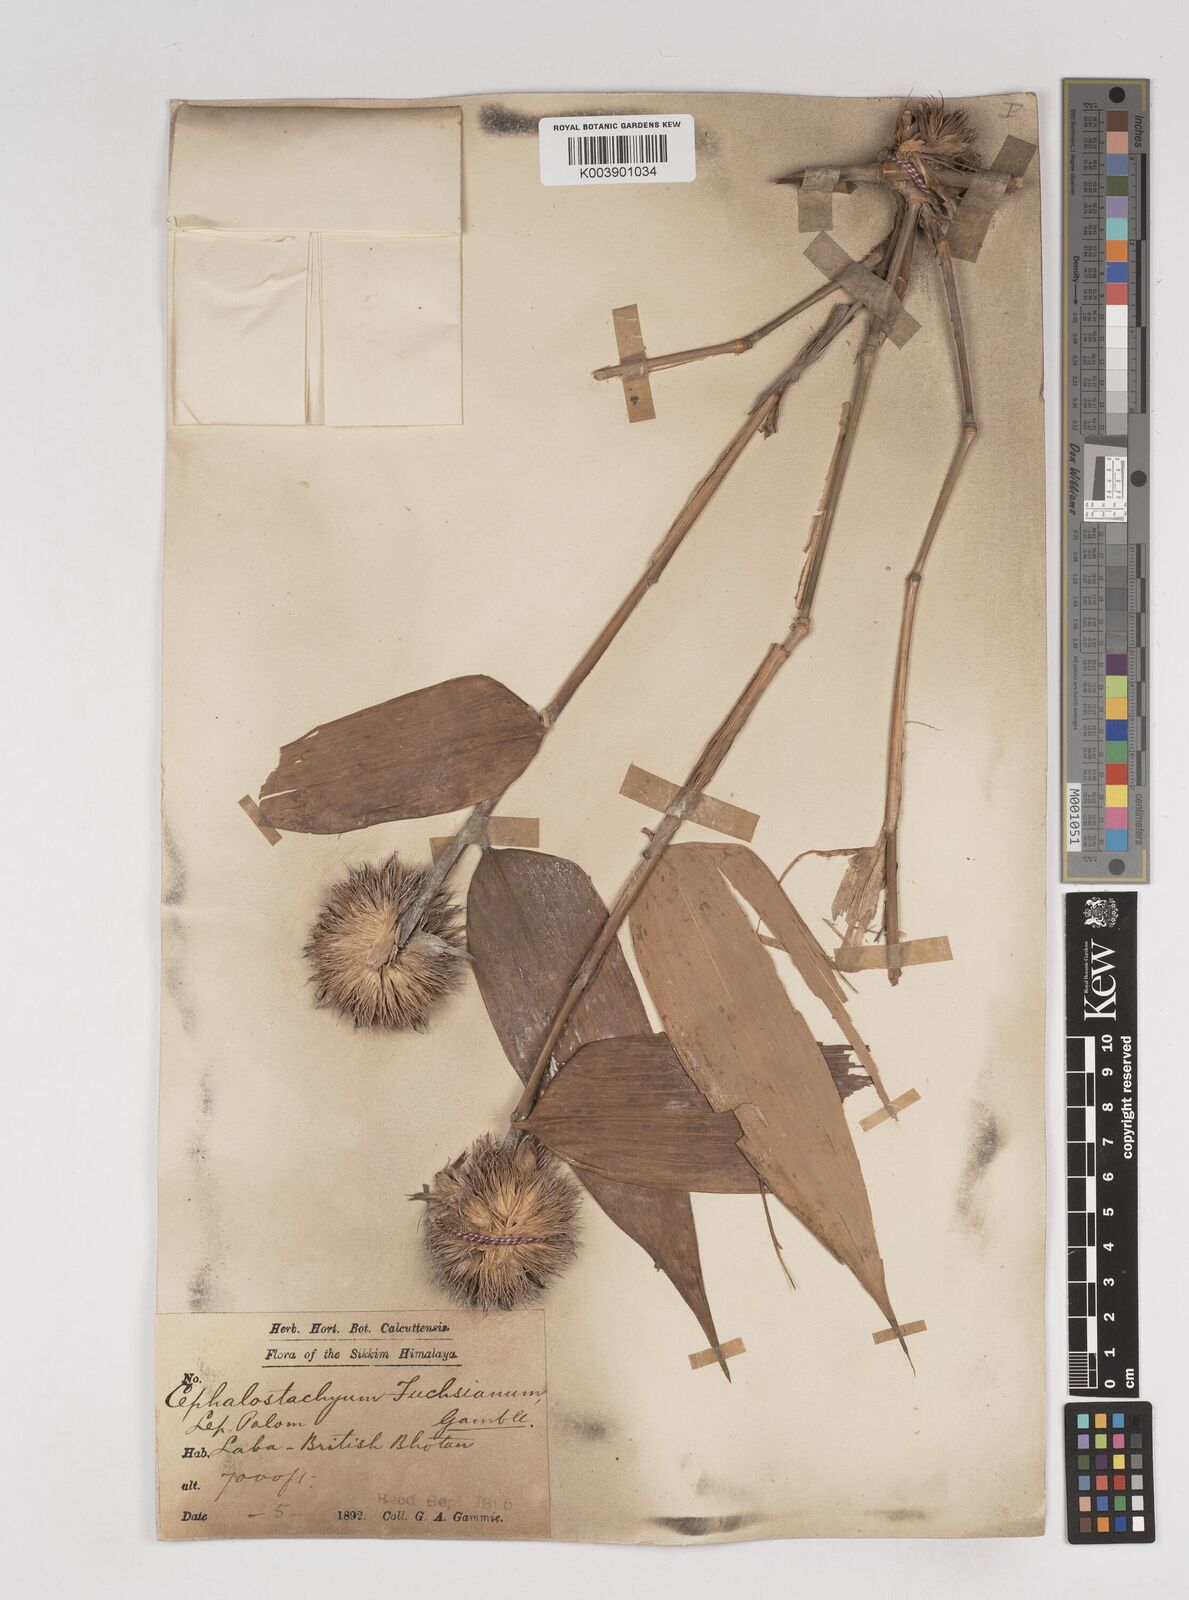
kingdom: Plantae
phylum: Tracheophyta
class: Liliopsida
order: Poales
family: Poaceae
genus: Cephalostachyum
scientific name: Cephalostachyum latifolium
